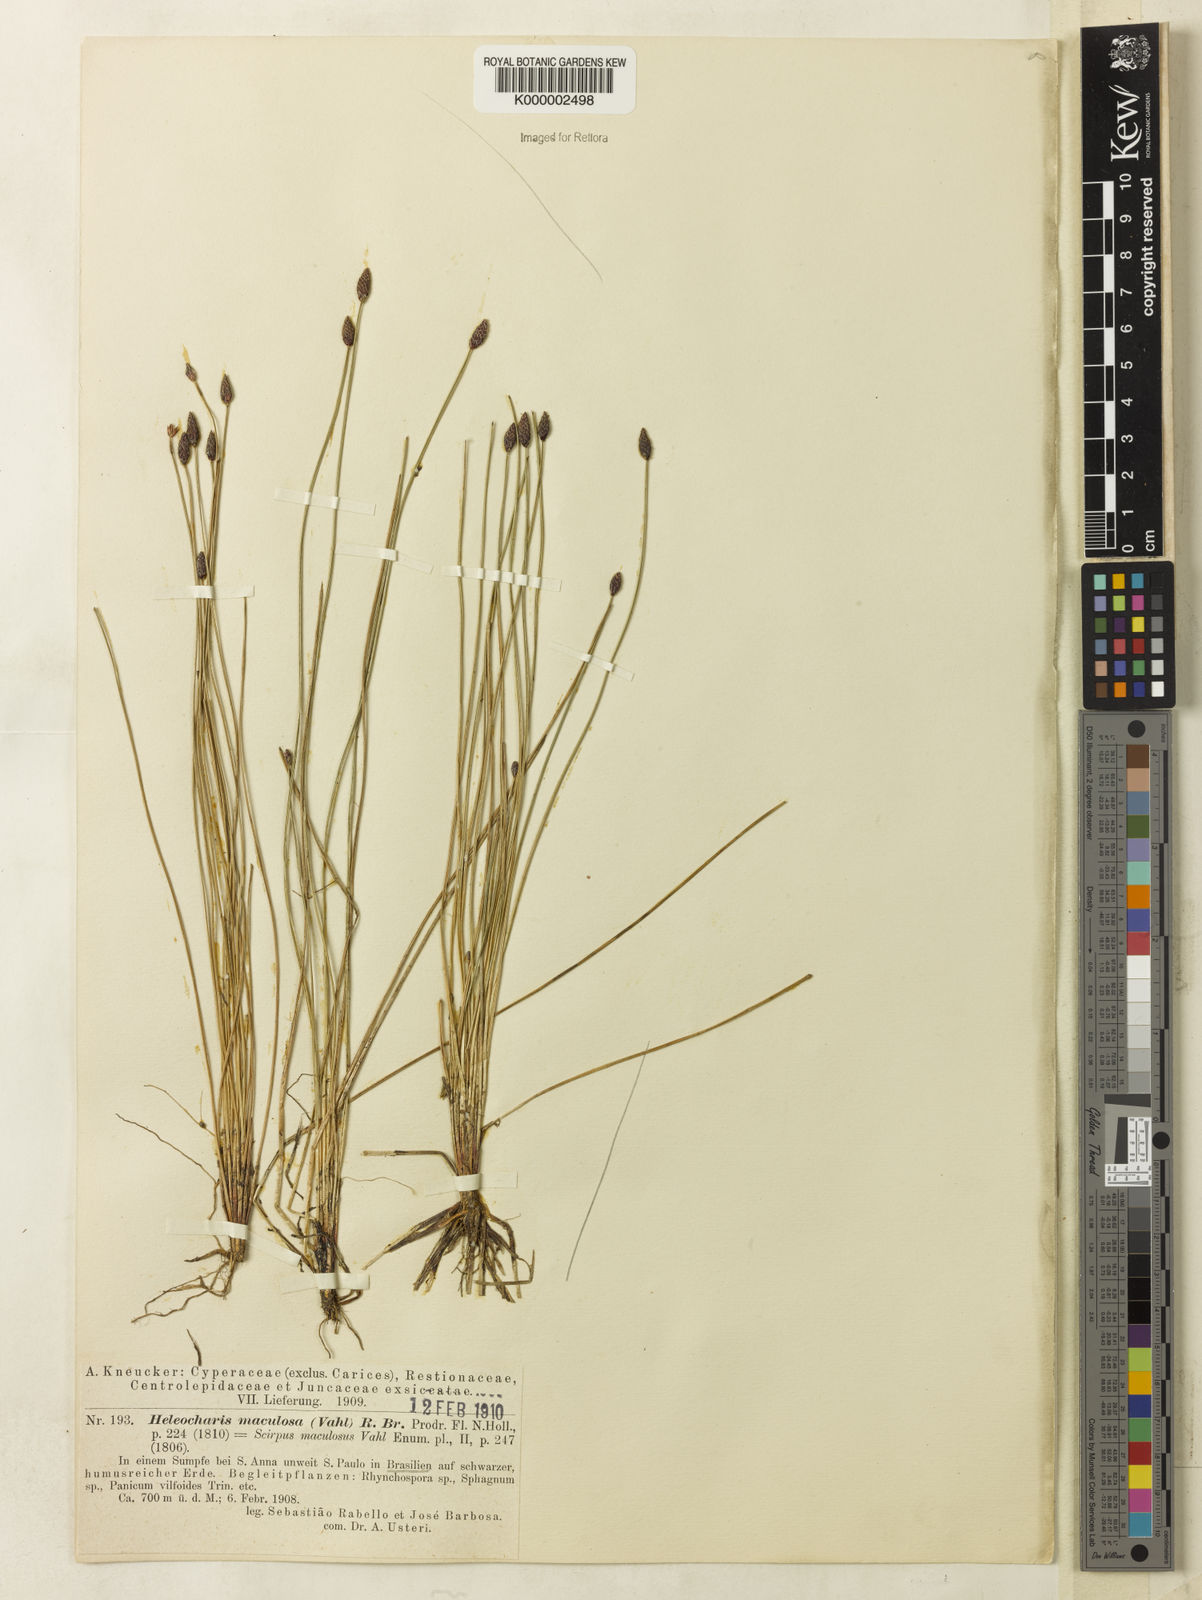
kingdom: Plantae
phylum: Tracheophyta
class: Liliopsida
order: Poales
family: Cyperaceae
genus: Eleocharis
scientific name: Eleocharis maculosa
